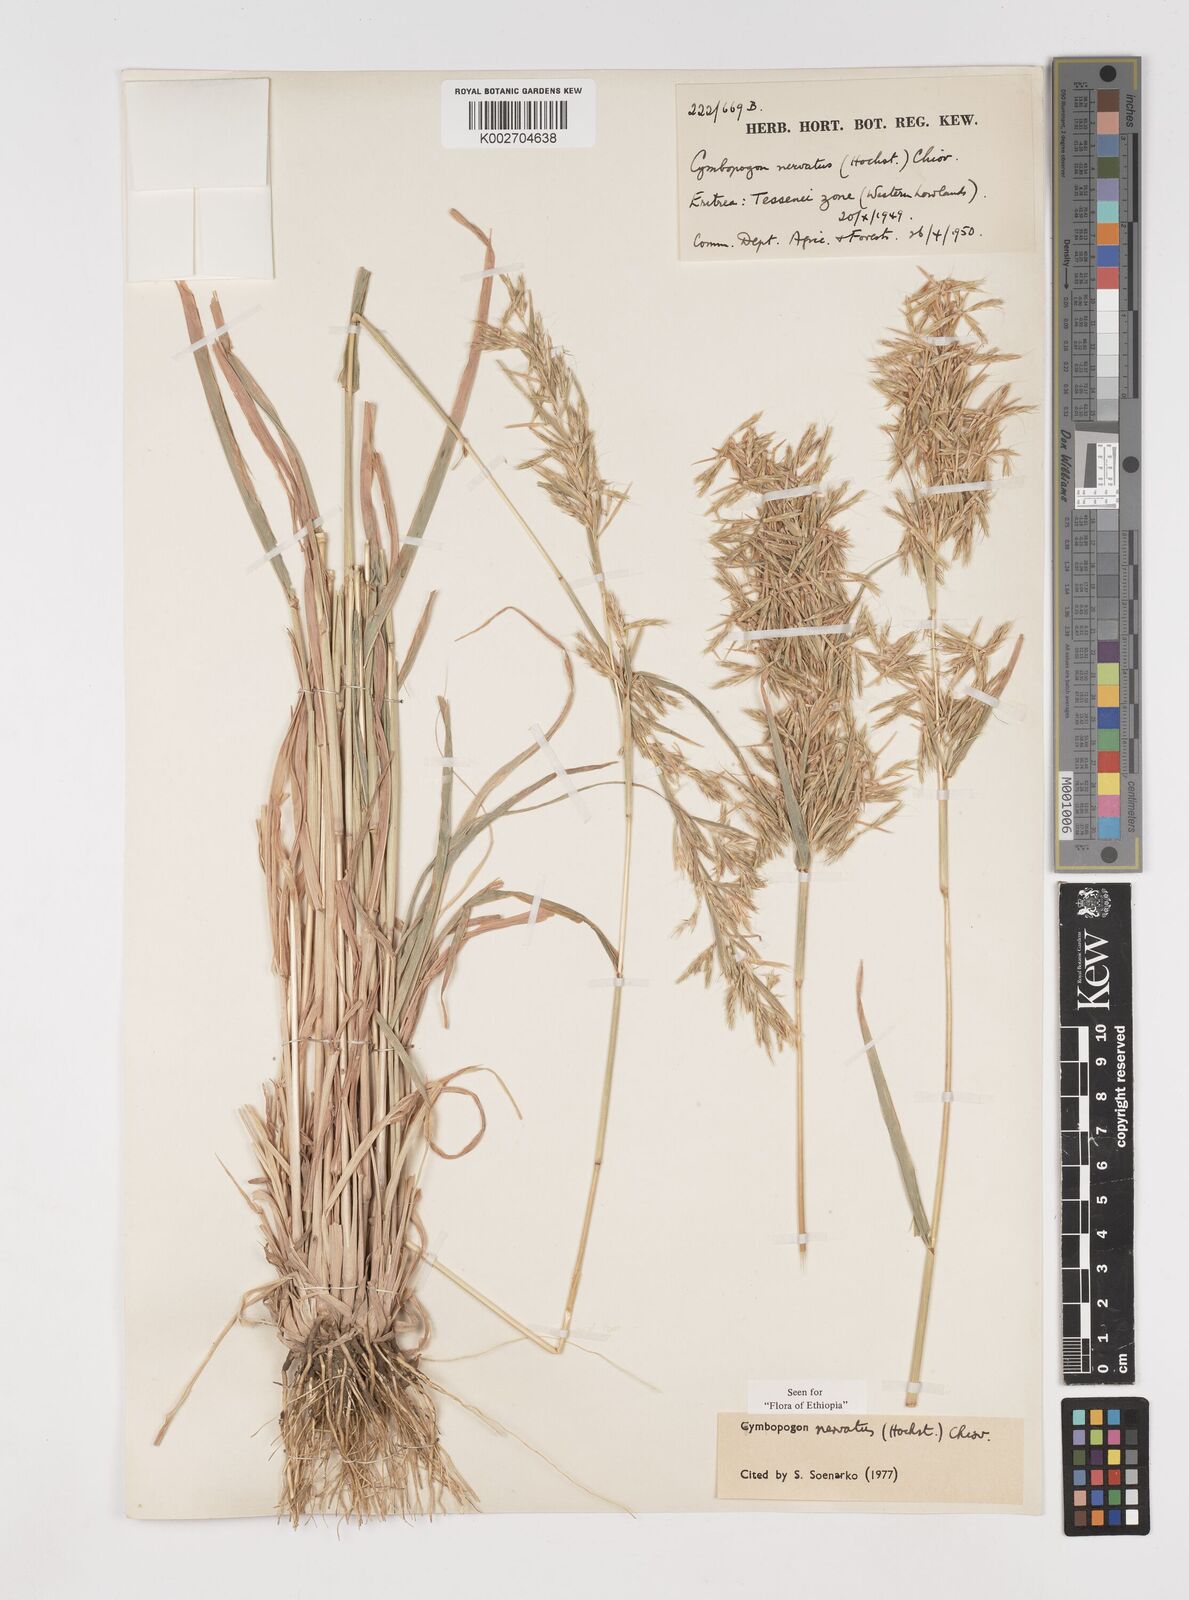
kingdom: Plantae
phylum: Tracheophyta
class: Liliopsida
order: Poales
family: Poaceae
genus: Cymbopogon
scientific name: Cymbopogon nervatus
